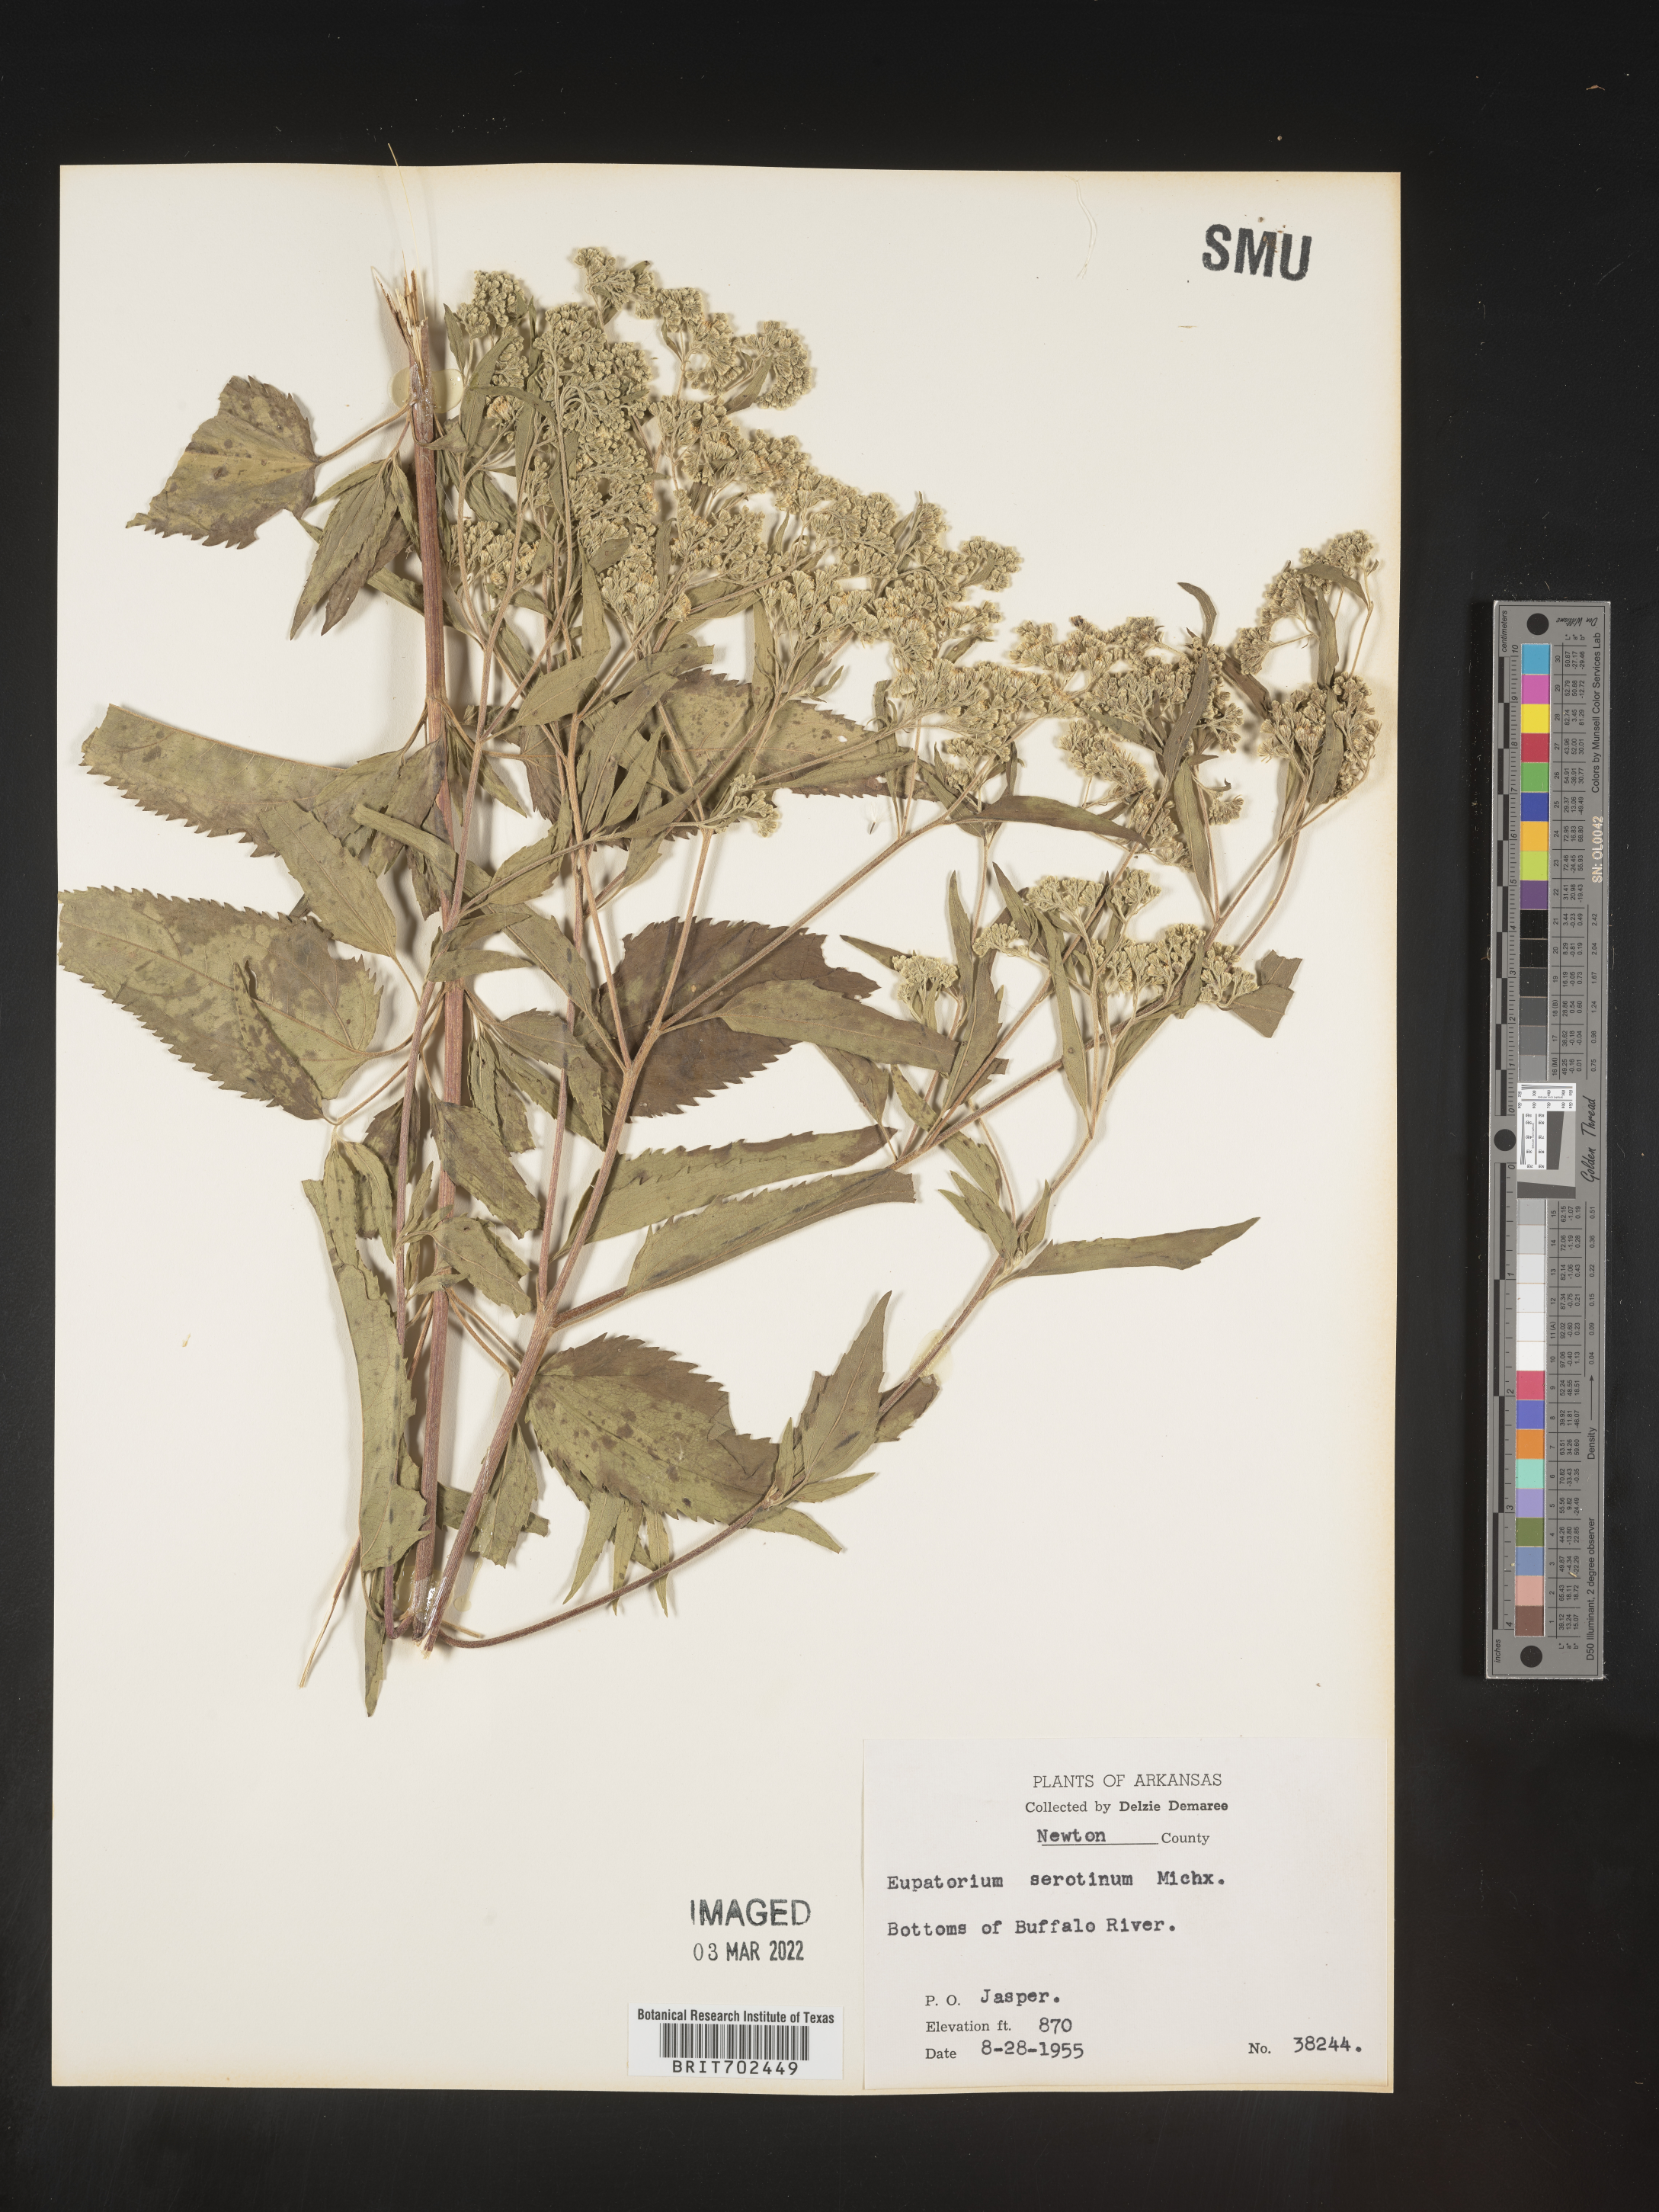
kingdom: Plantae
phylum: Tracheophyta
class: Magnoliopsida
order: Asterales
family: Asteraceae
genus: Eupatorium
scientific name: Eupatorium serotinum
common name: Late boneset
